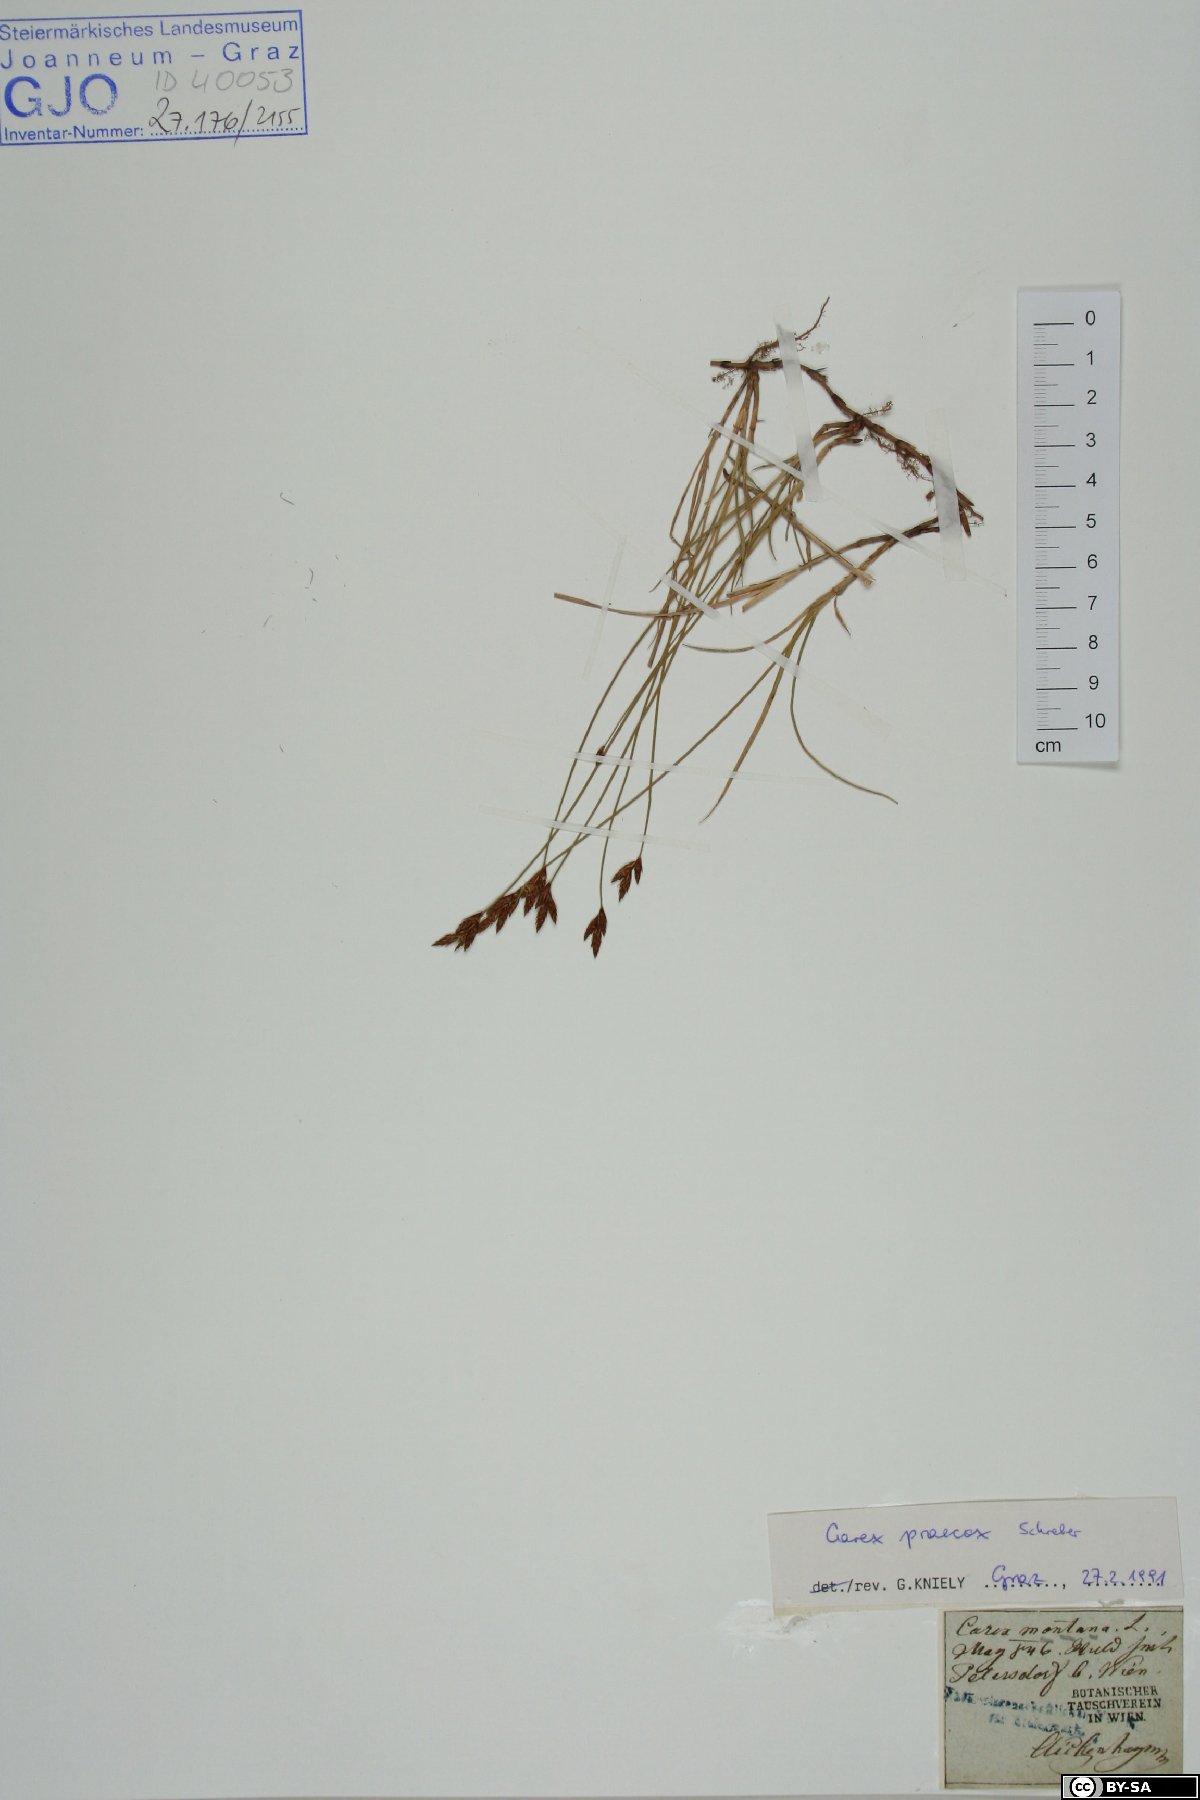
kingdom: Plantae
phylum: Tracheophyta
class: Liliopsida
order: Poales
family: Cyperaceae
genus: Carex
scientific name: Carex praecox
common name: Early sedge
